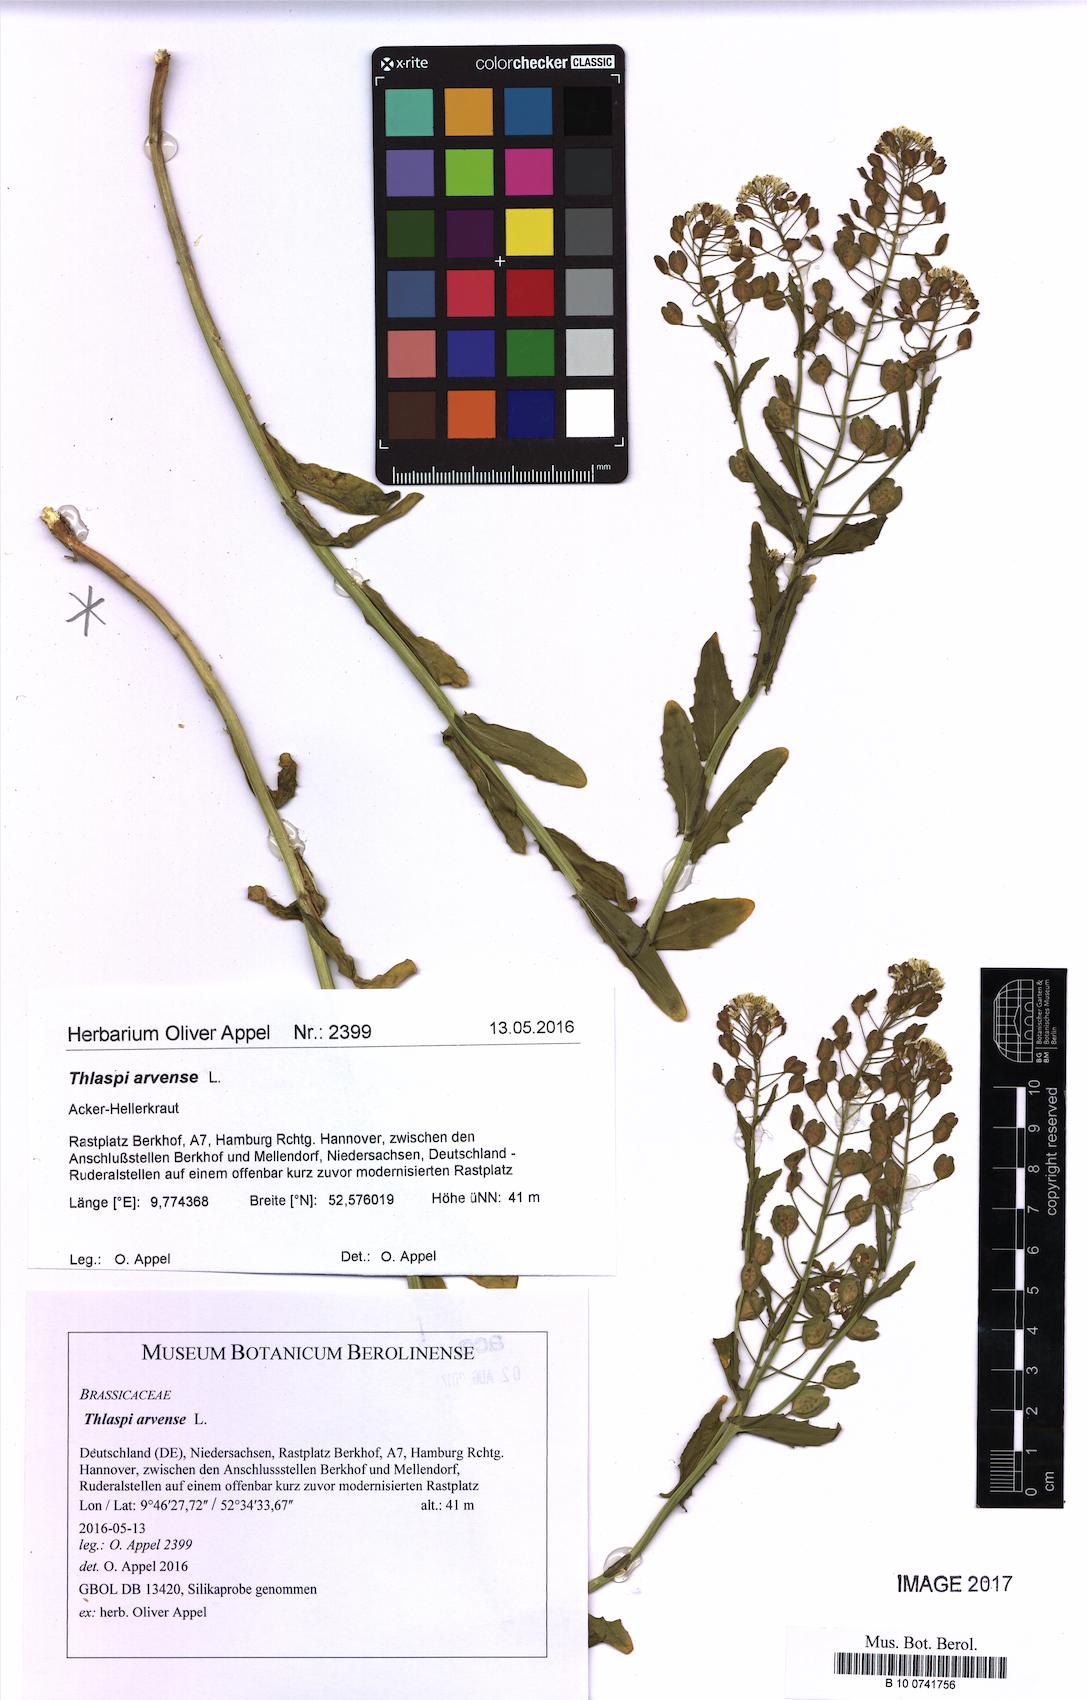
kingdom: Plantae
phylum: Tracheophyta
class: Magnoliopsida
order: Brassicales
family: Brassicaceae
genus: Thlaspi
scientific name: Thlaspi arvense
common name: Field pennycress
